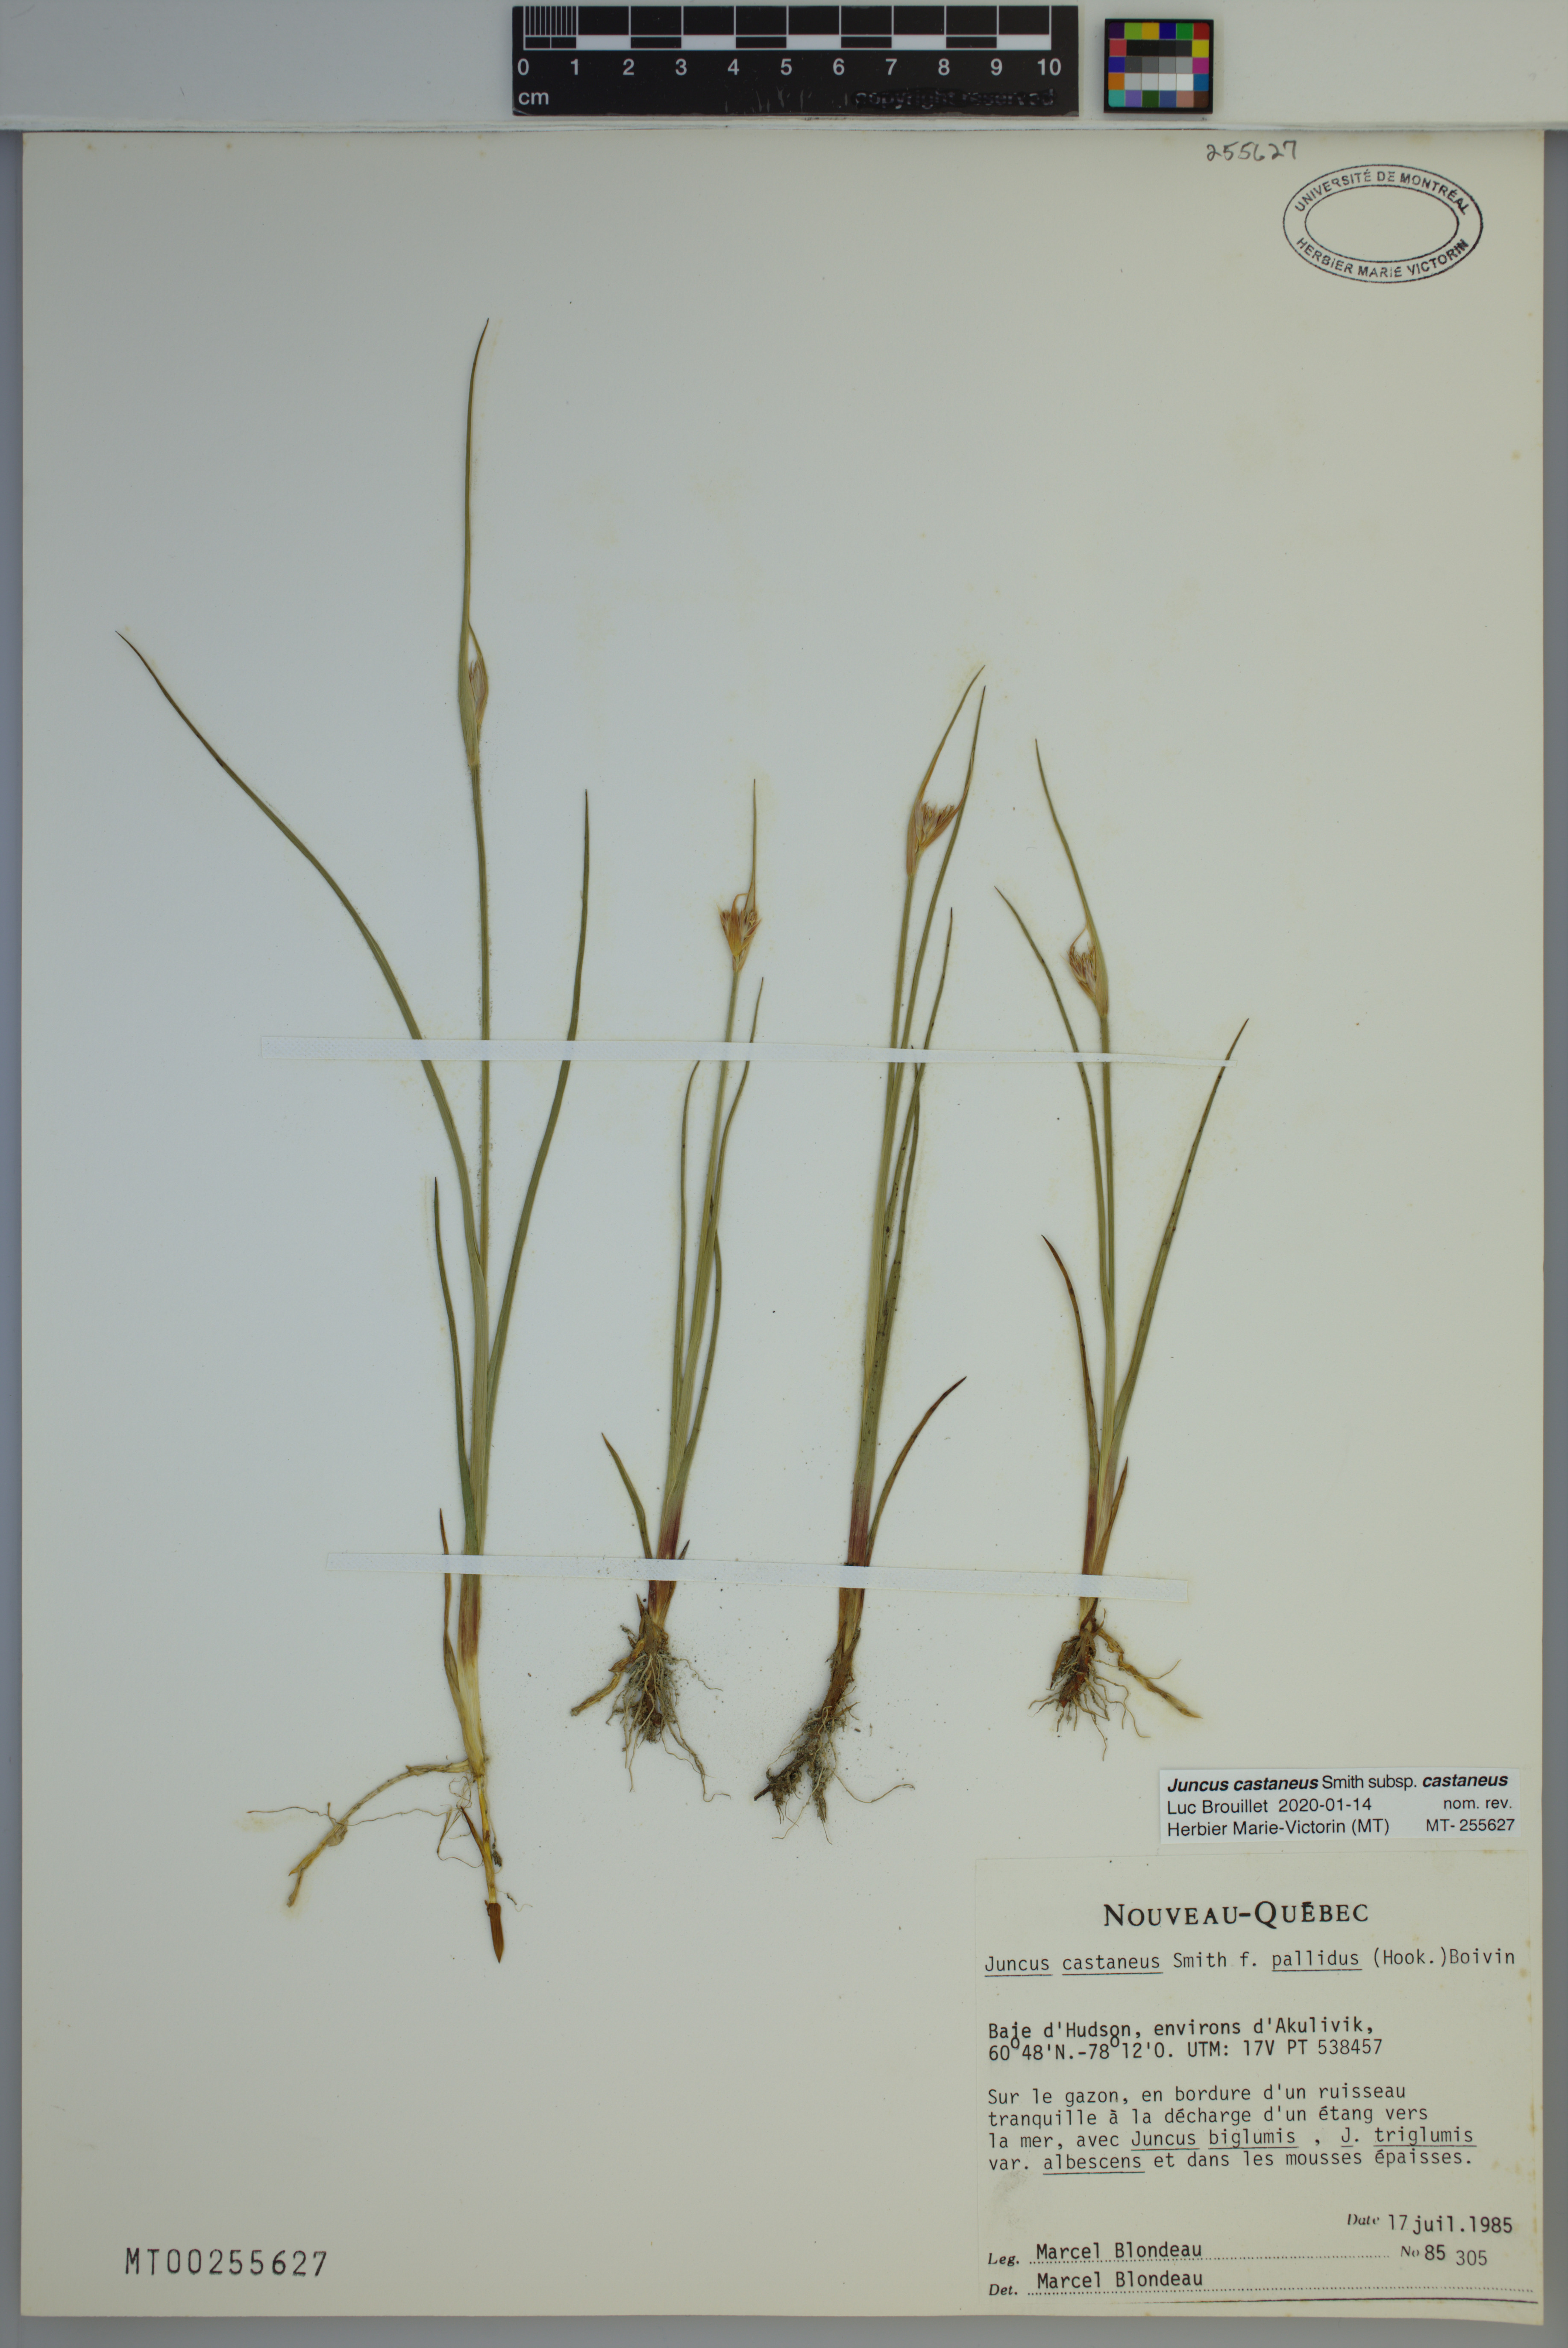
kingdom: Plantae
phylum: Tracheophyta
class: Liliopsida
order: Poales
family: Juncaceae
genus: Juncus
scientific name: Juncus castaneus
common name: Chestnut rush
